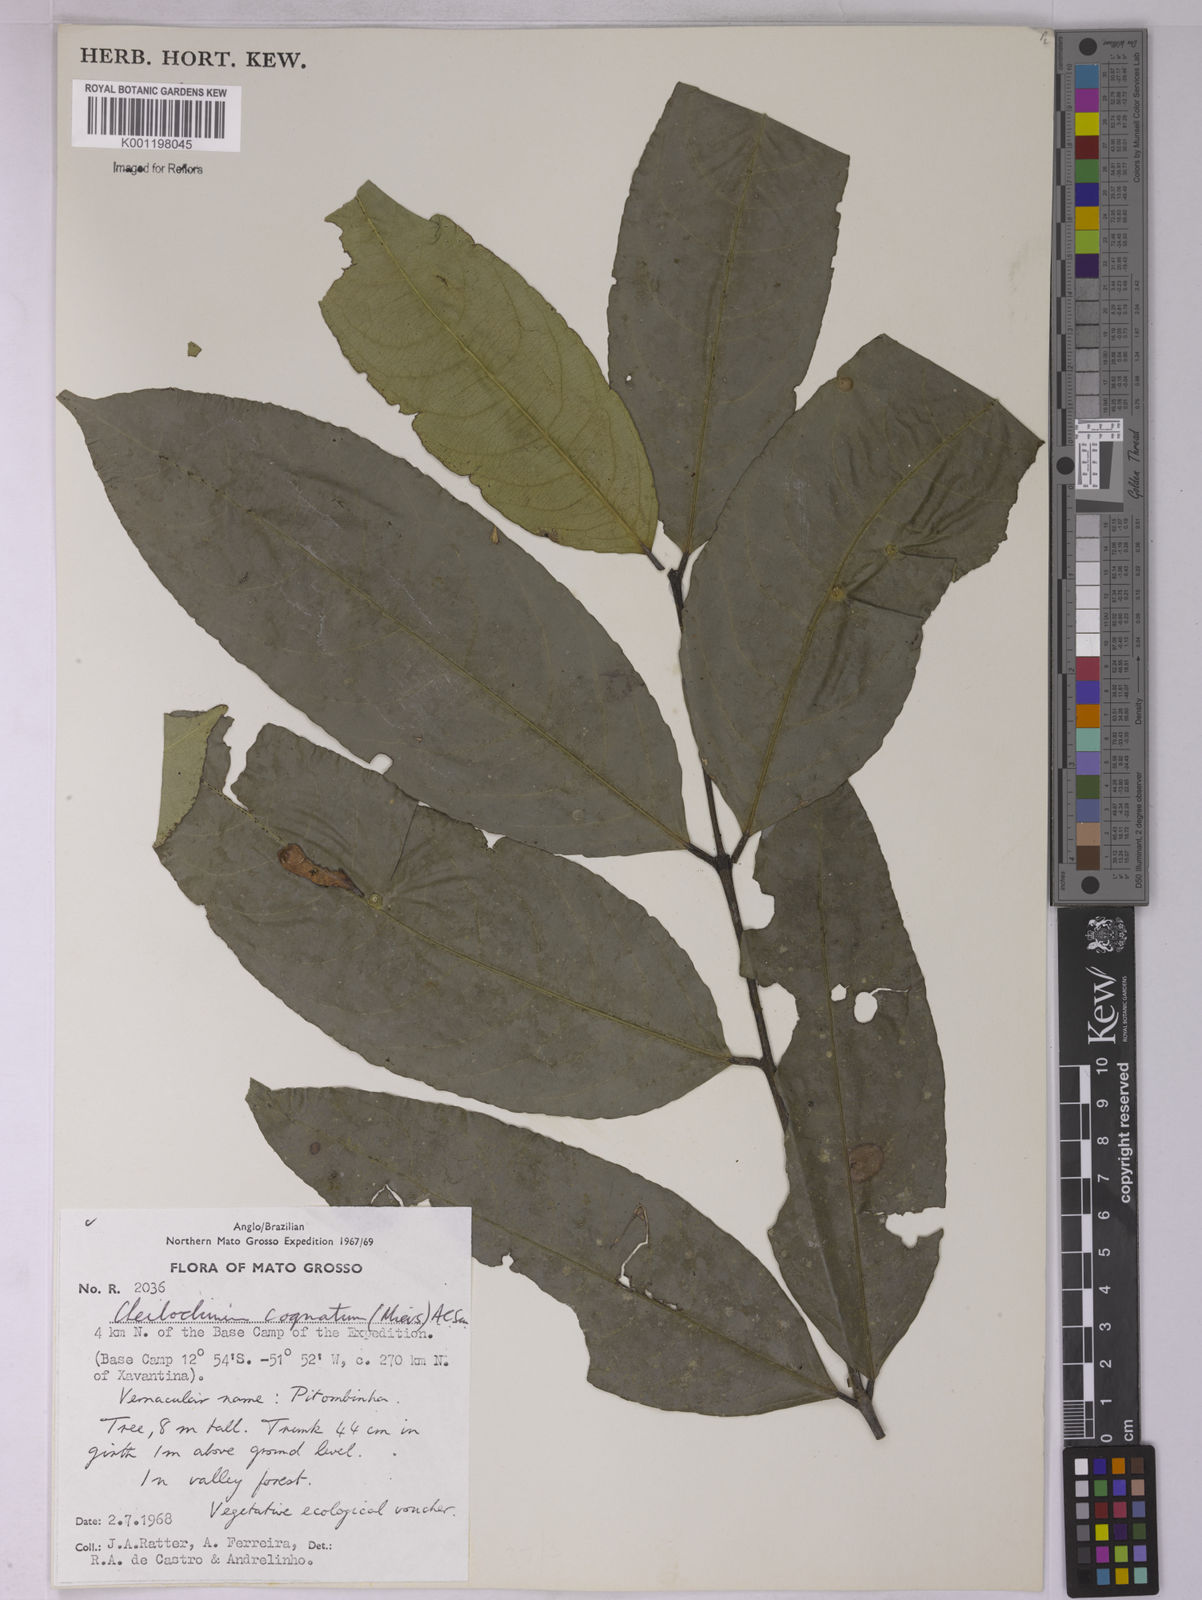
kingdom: Plantae
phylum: Tracheophyta
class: Magnoliopsida
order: Celastrales
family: Celastraceae
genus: Cheiloclinium
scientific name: Cheiloclinium cognatum
